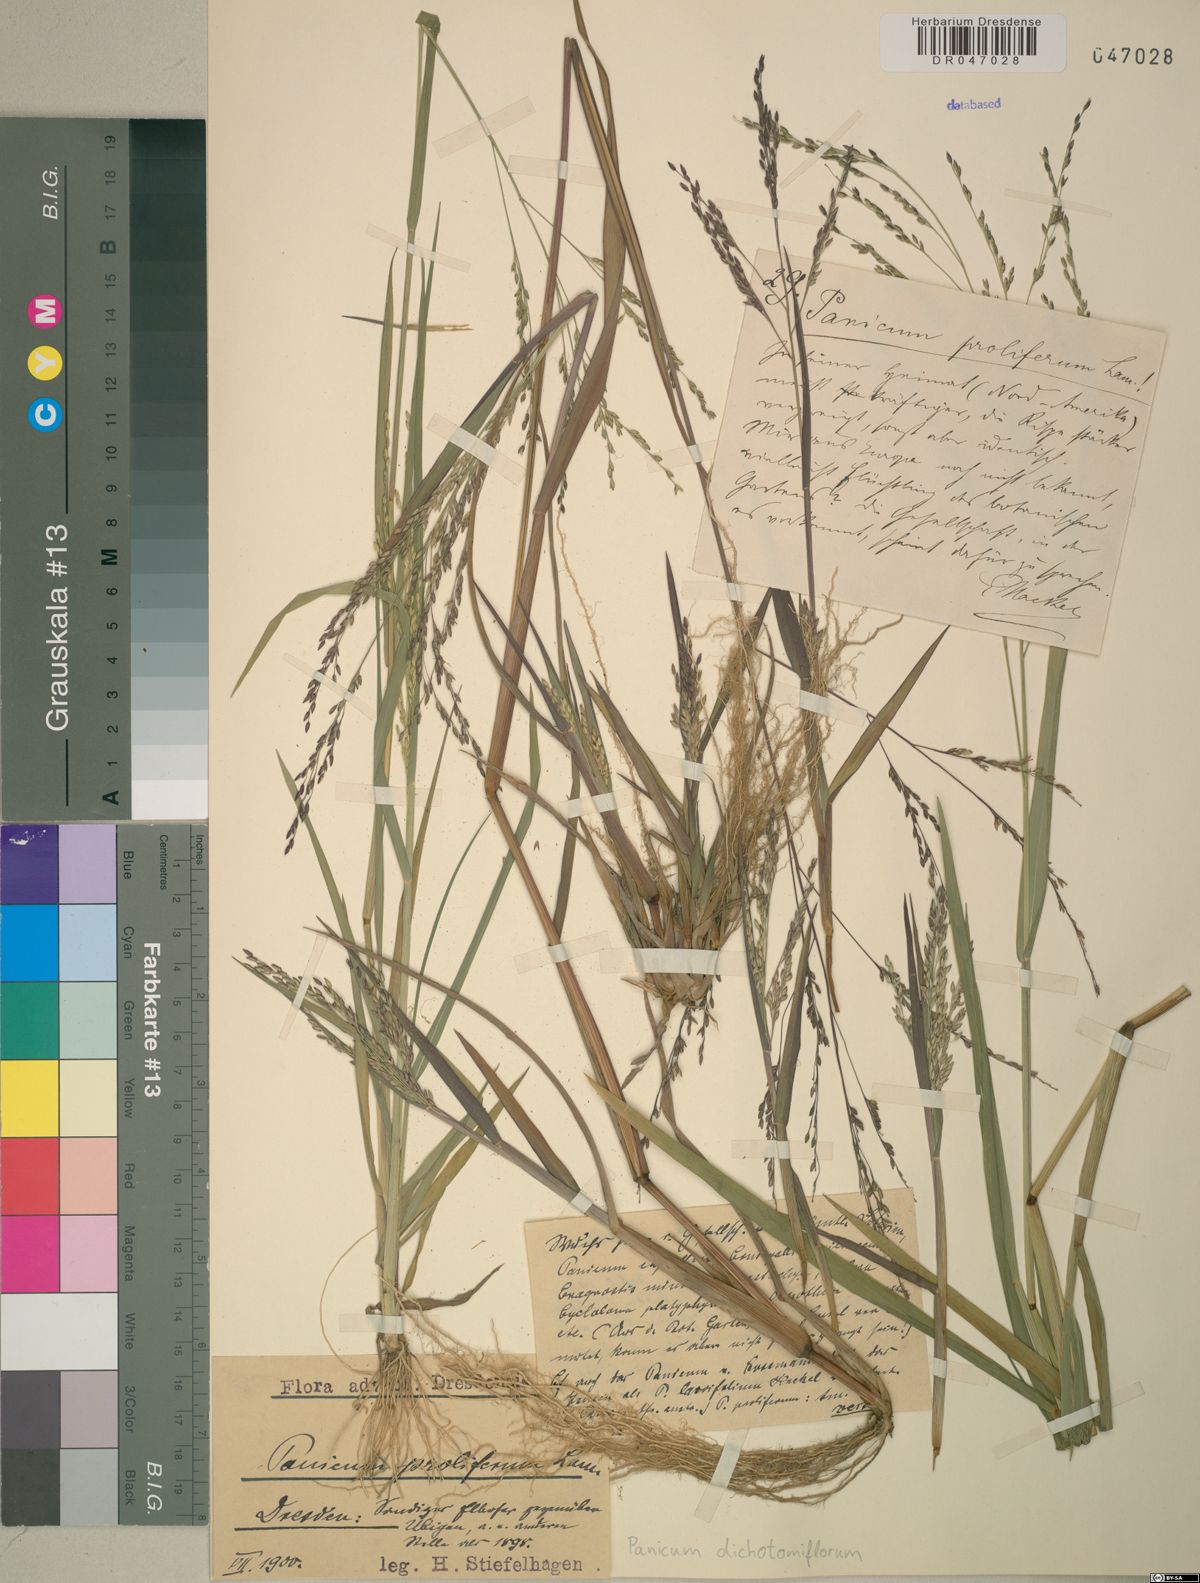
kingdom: Plantae
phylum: Tracheophyta
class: Liliopsida
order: Poales
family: Poaceae
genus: Panicum
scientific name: Panicum dichotomiflorum
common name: Autumn millet
